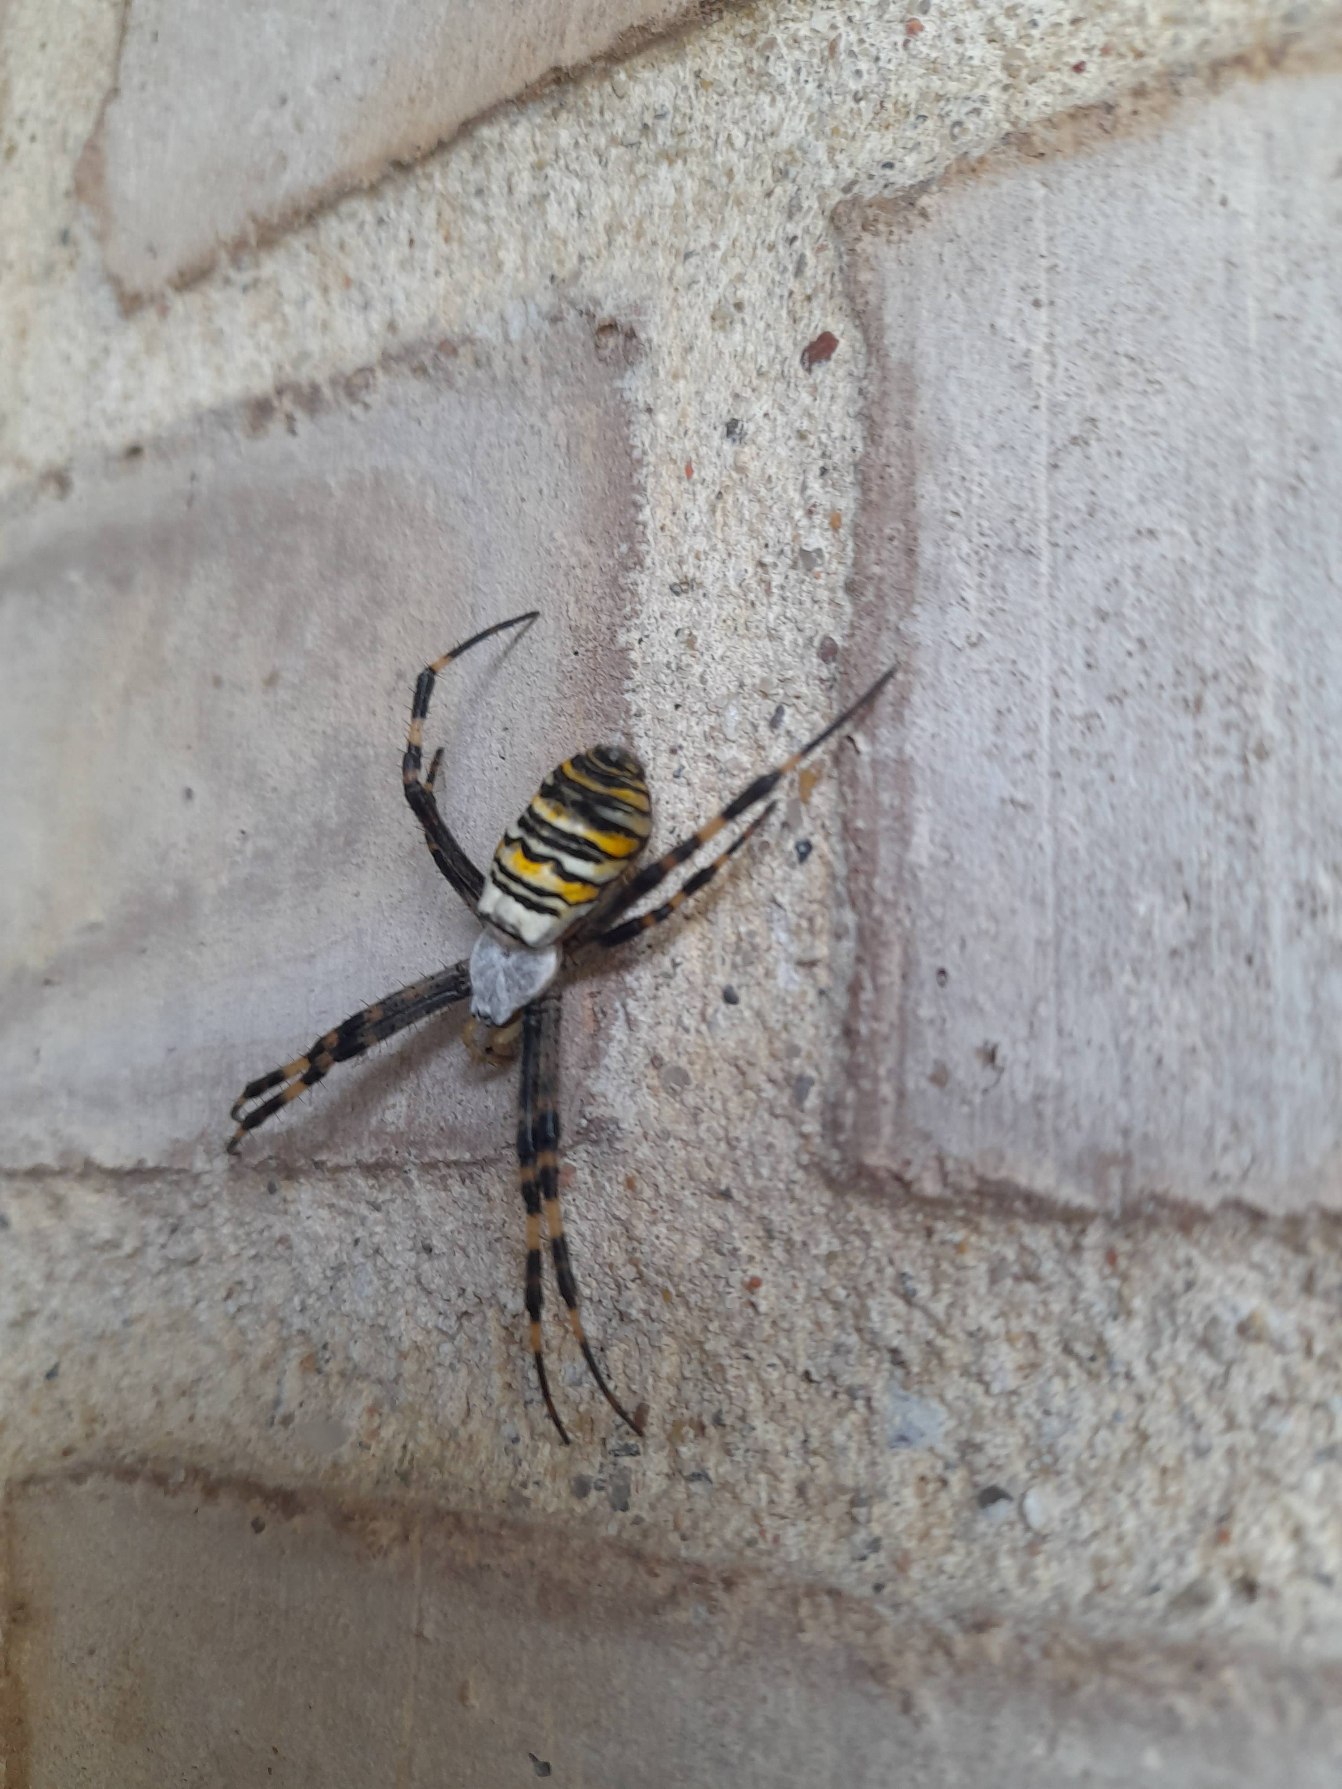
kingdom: Animalia
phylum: Arthropoda
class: Arachnida
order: Araneae
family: Araneidae
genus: Argiope
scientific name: Argiope bruennichi
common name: Hvepseedderkop
